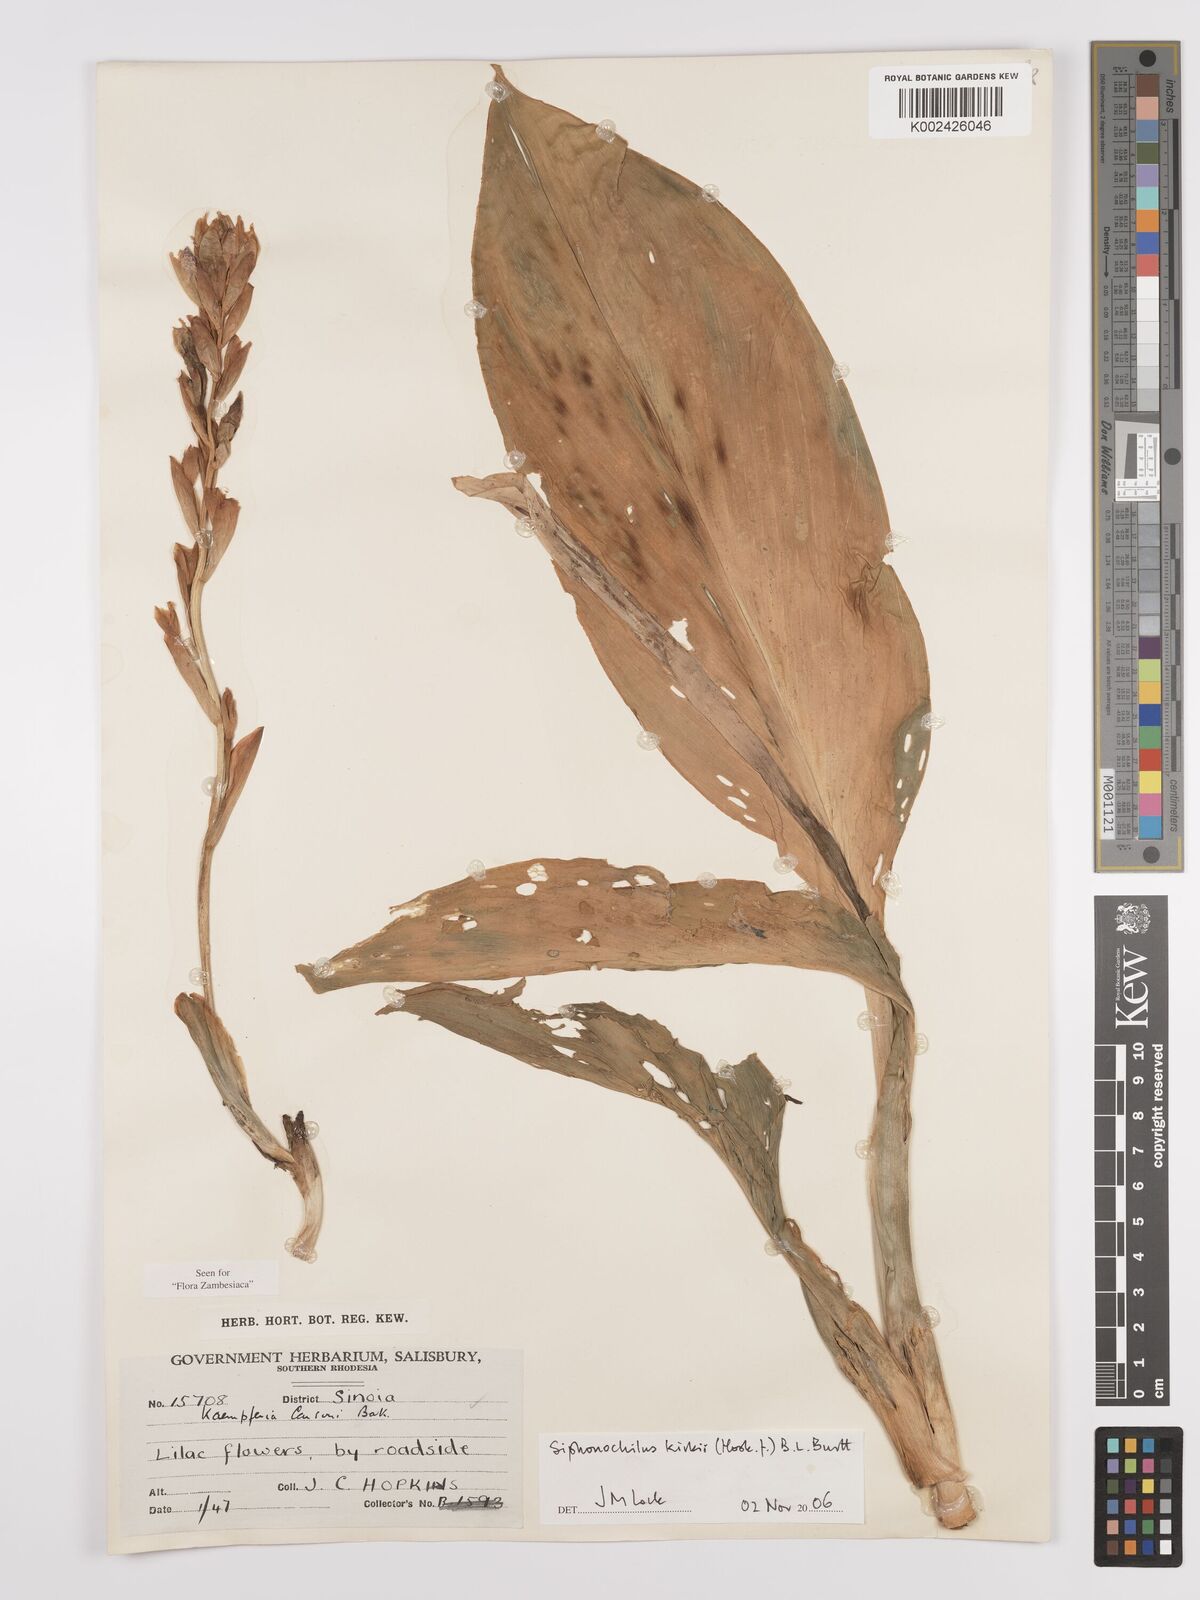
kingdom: Plantae
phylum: Tracheophyta
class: Liliopsida
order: Zingiberales
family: Zingiberaceae
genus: Siphonochilus
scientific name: Siphonochilus kirkii
